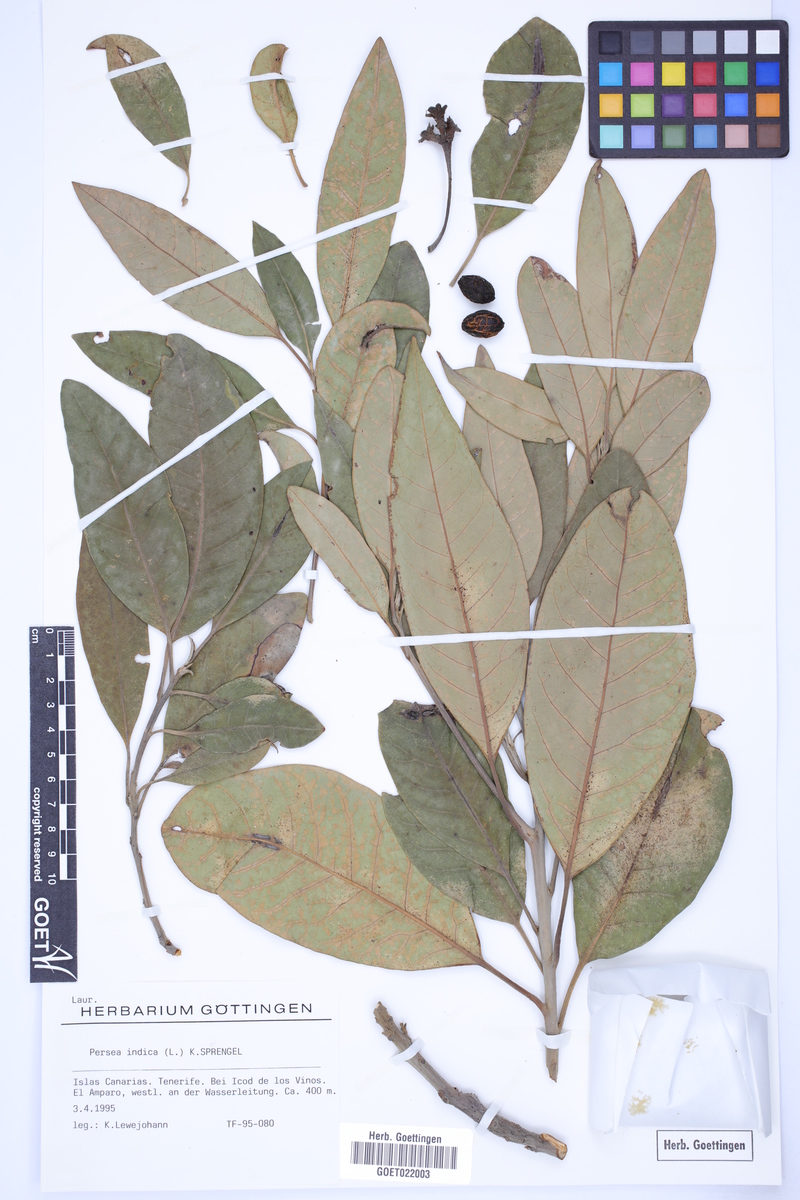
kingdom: Plantae
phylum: Tracheophyta
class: Magnoliopsida
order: Laurales
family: Lauraceae
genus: Persea
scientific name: Persea indica
